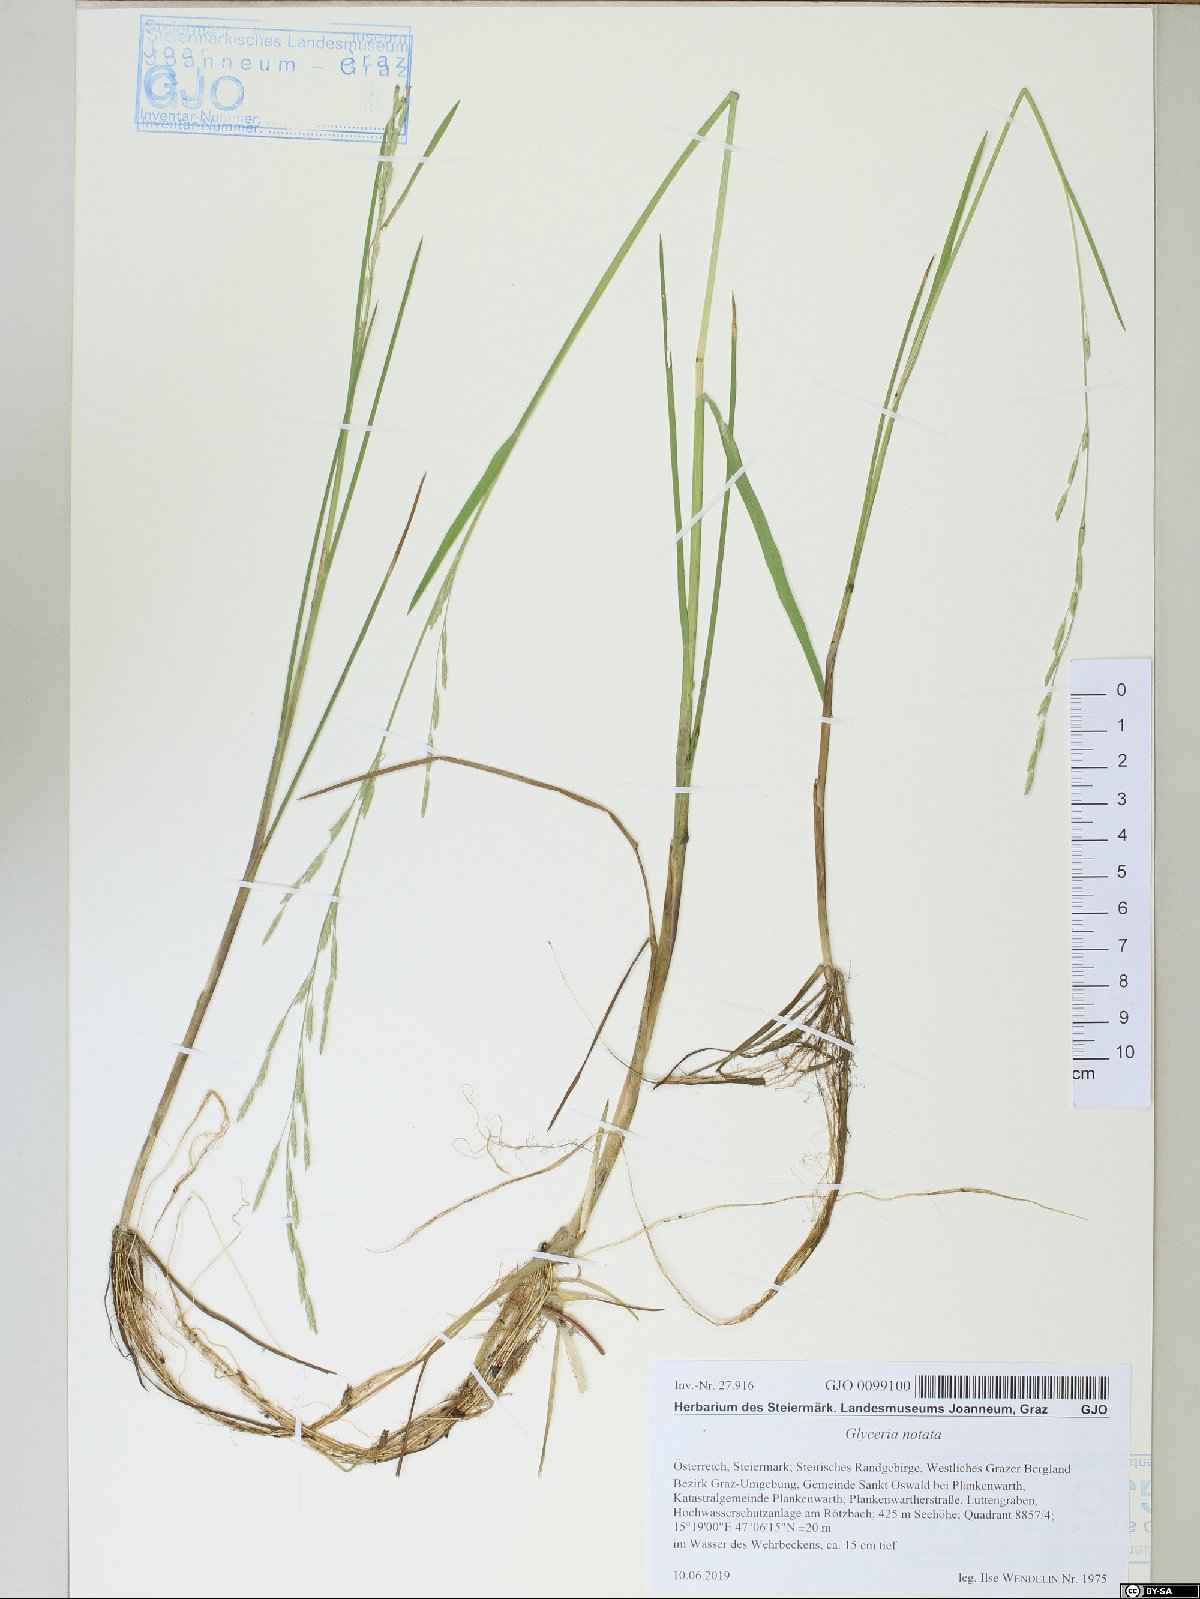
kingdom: Plantae
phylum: Tracheophyta
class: Liliopsida
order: Poales
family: Poaceae
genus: Glyceria
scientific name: Glyceria notata
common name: Plicate sweet-grass
